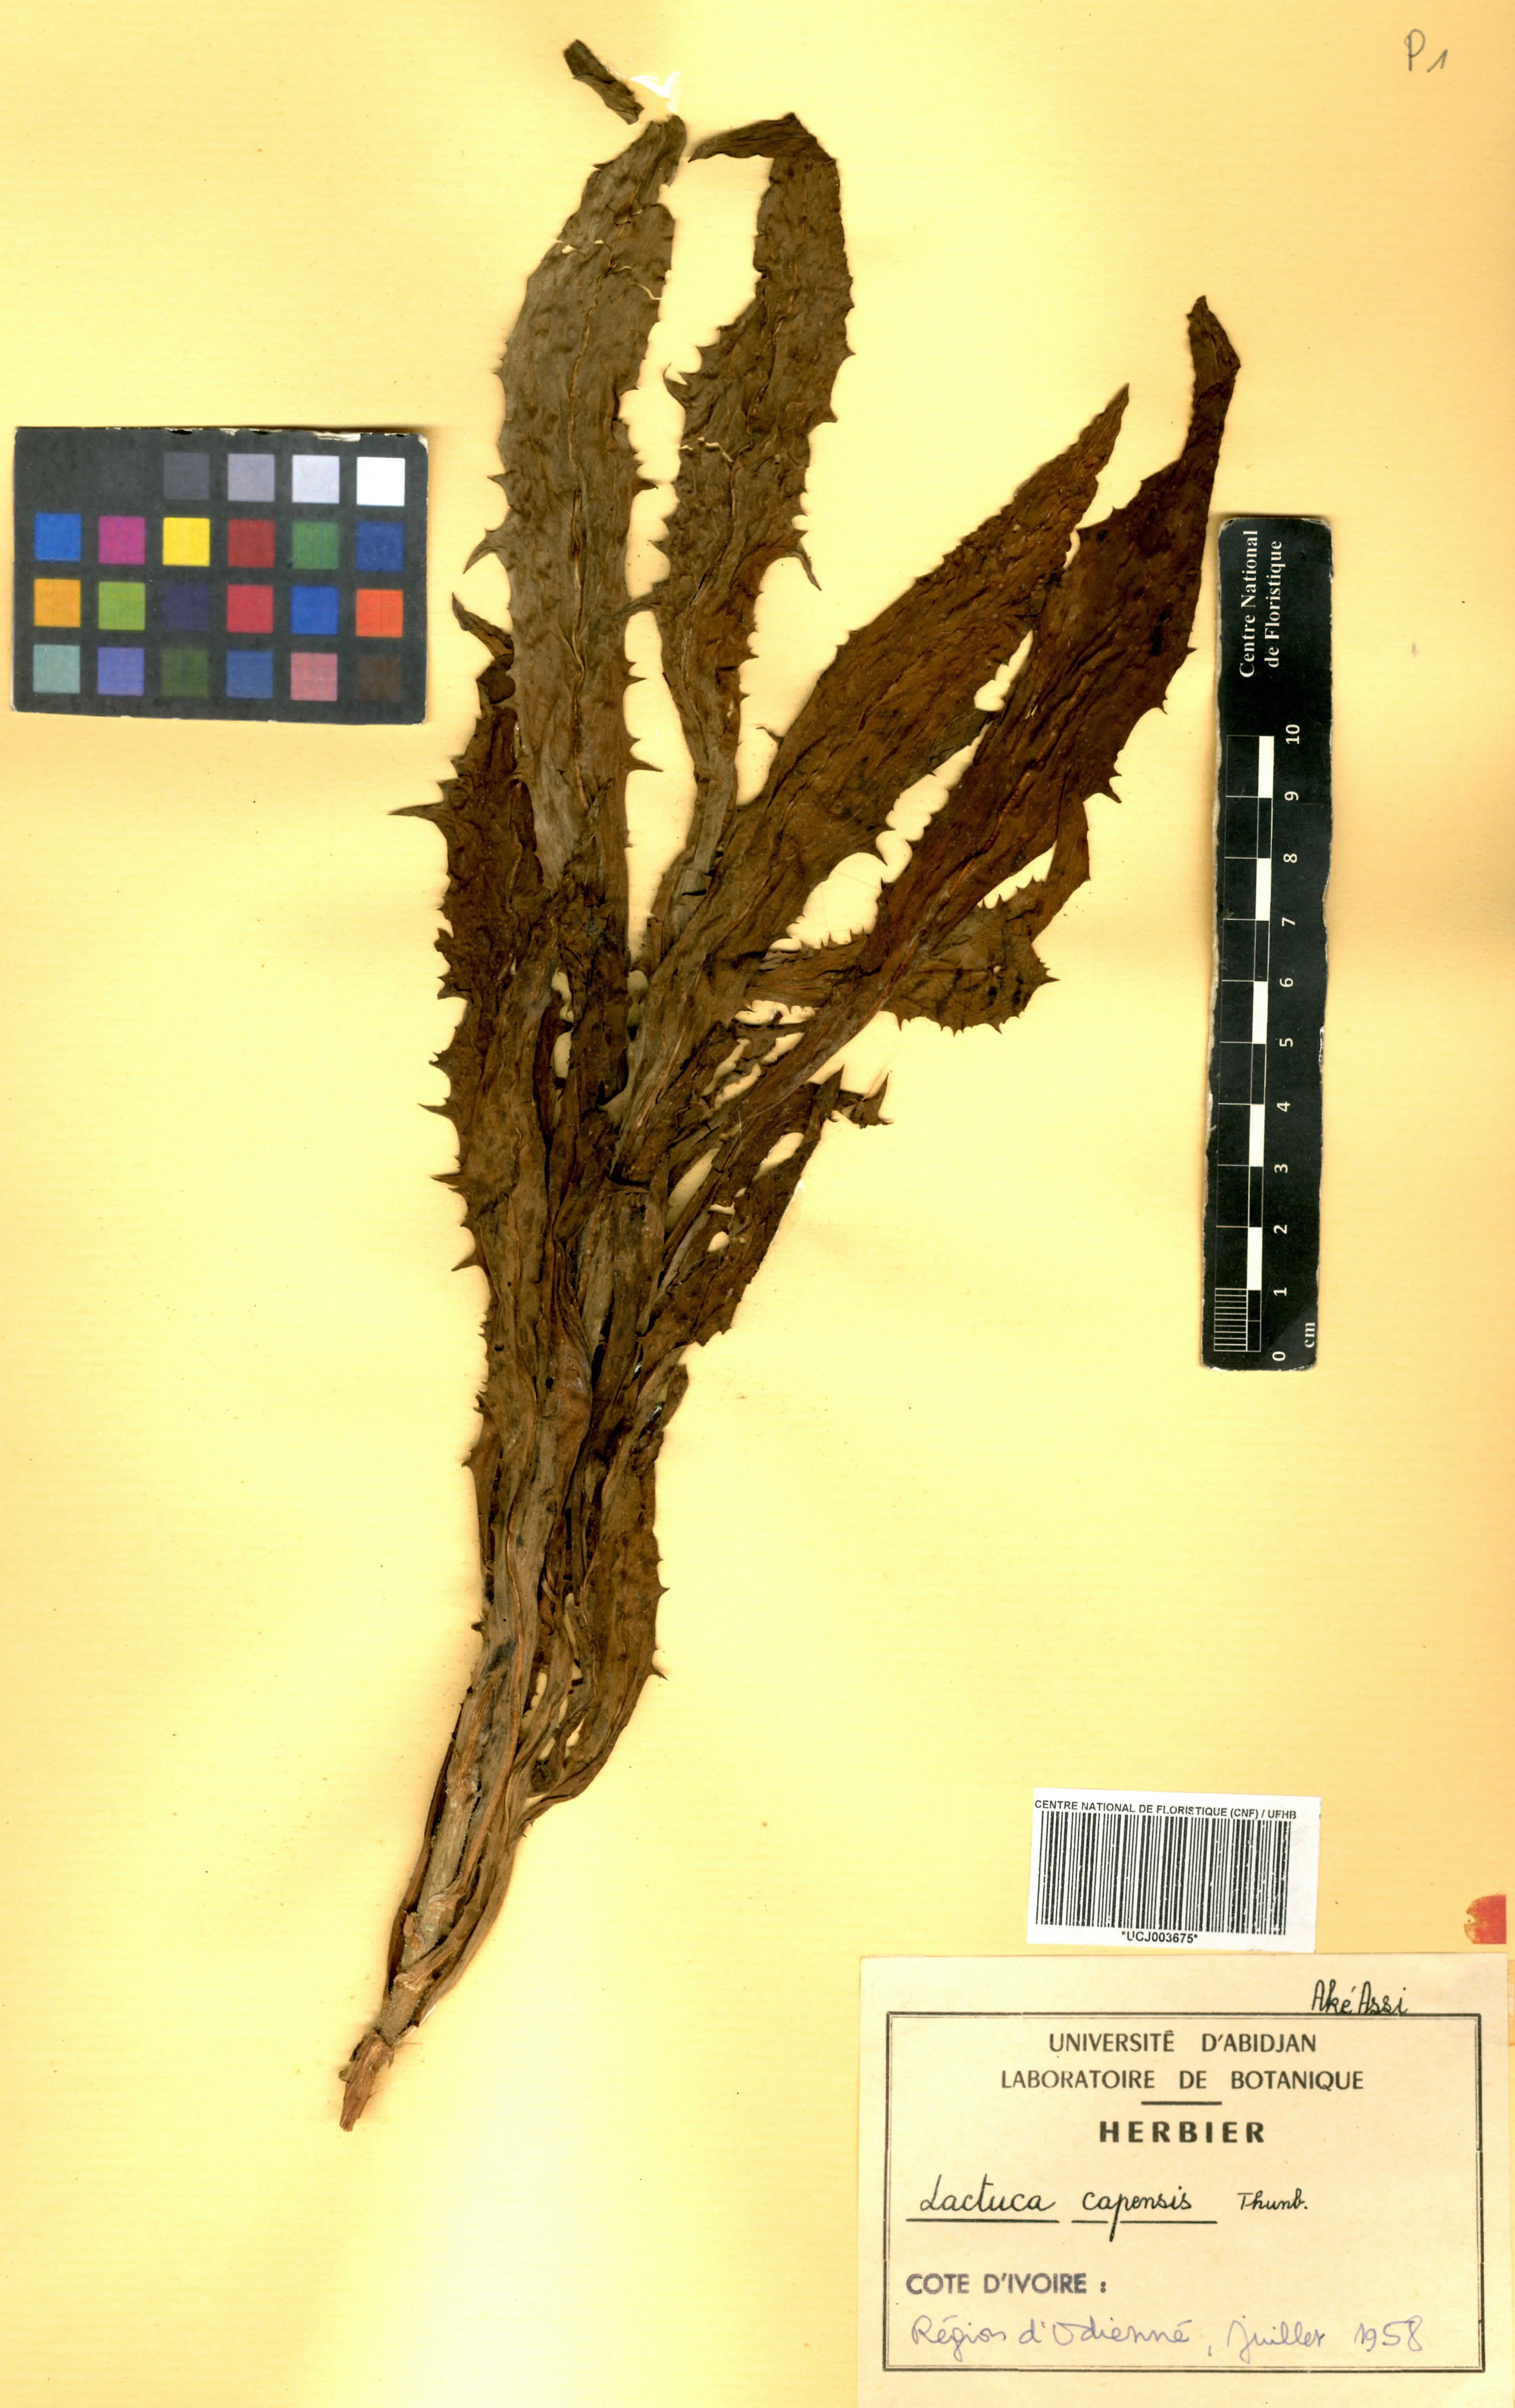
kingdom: Plantae
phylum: Tracheophyta
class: Magnoliopsida
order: Asterales
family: Asteraceae
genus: Lactuca
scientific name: Lactuca inermis
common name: Wild lettuce
